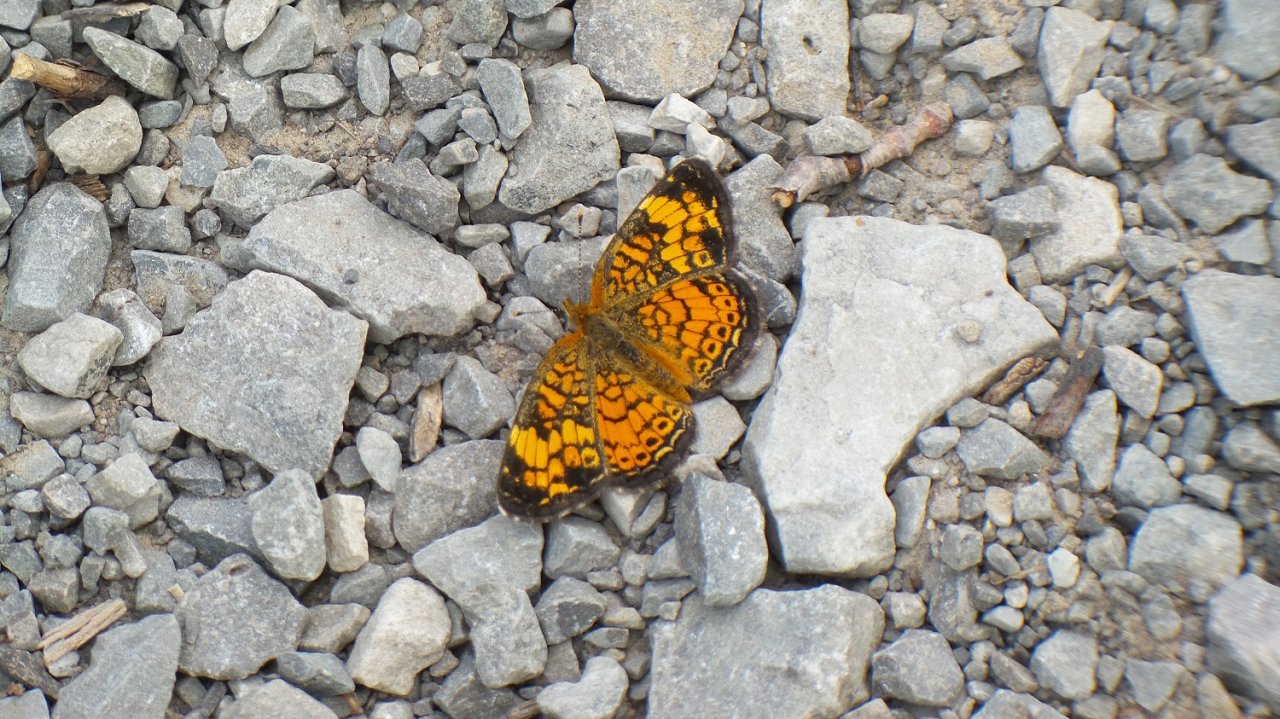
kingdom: Animalia
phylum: Arthropoda
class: Insecta
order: Lepidoptera
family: Nymphalidae
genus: Phyciodes
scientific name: Phyciodes tharos
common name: Northern Crescent
